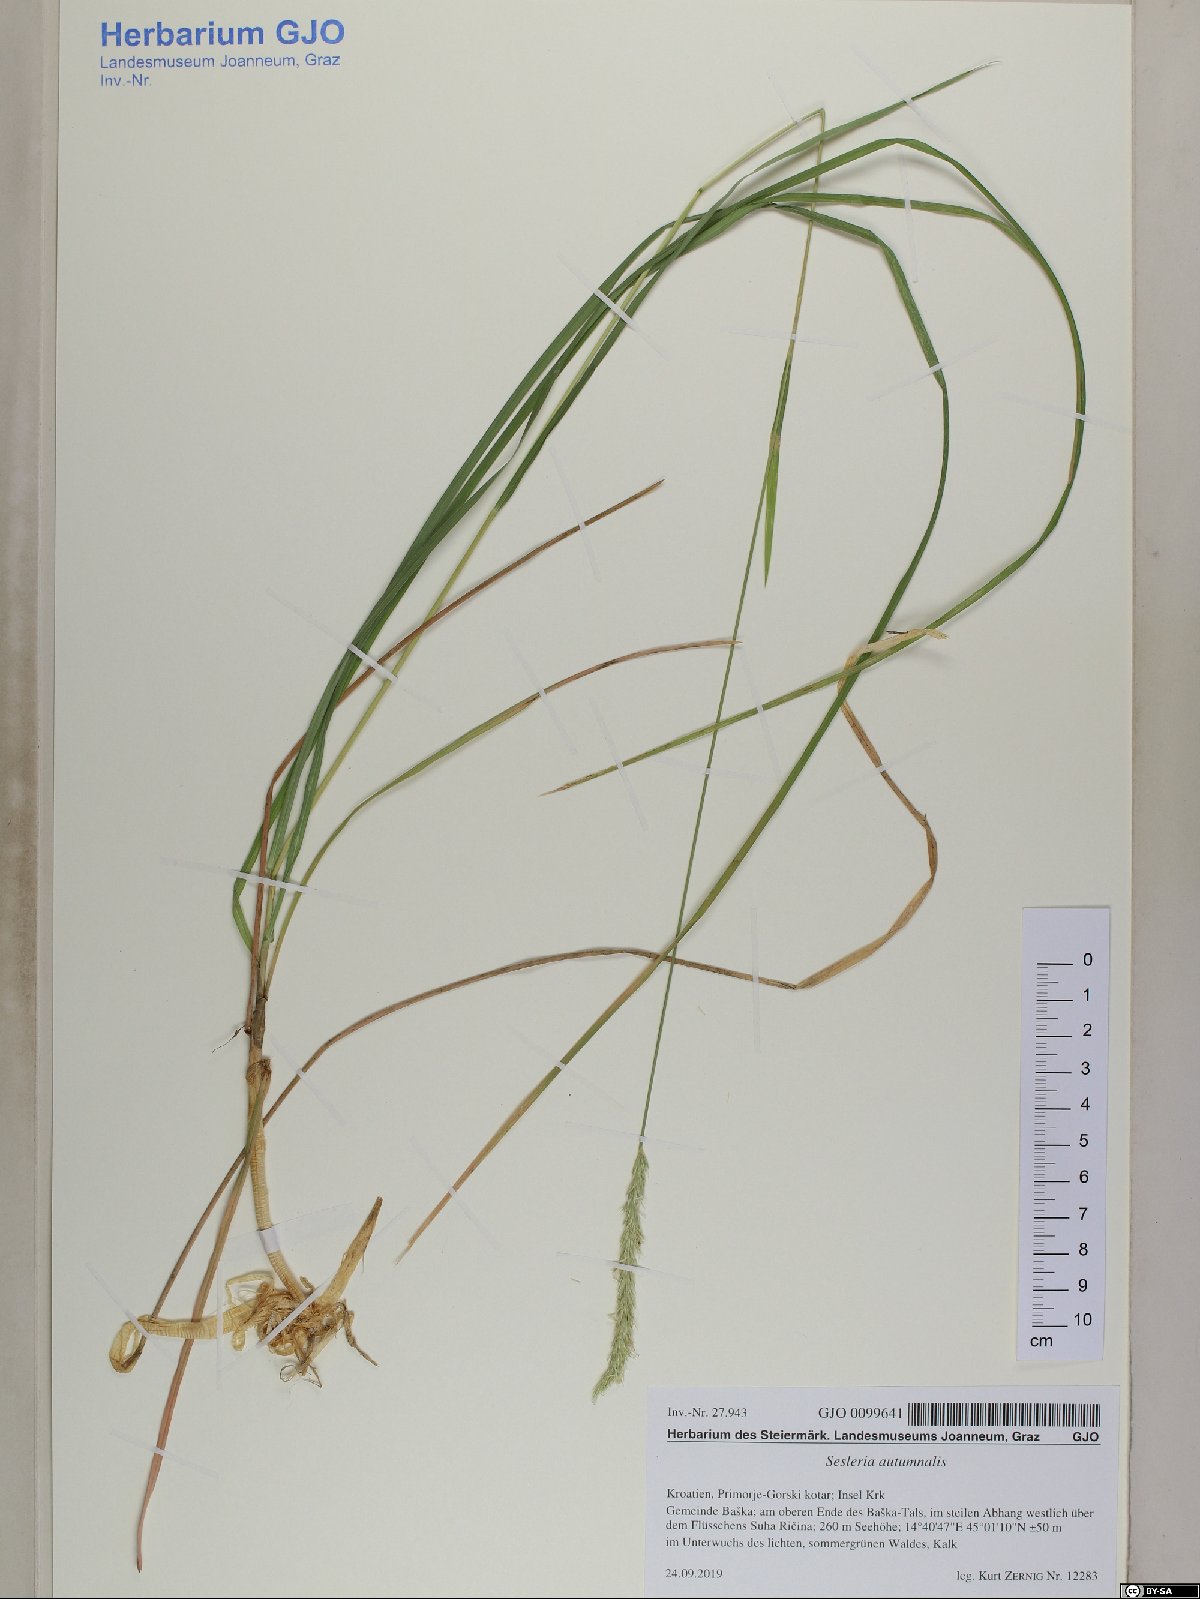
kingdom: Plantae
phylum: Tracheophyta
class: Liliopsida
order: Poales
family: Poaceae
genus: Sesleria
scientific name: Sesleria autumnalis
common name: Autumn moor grass
